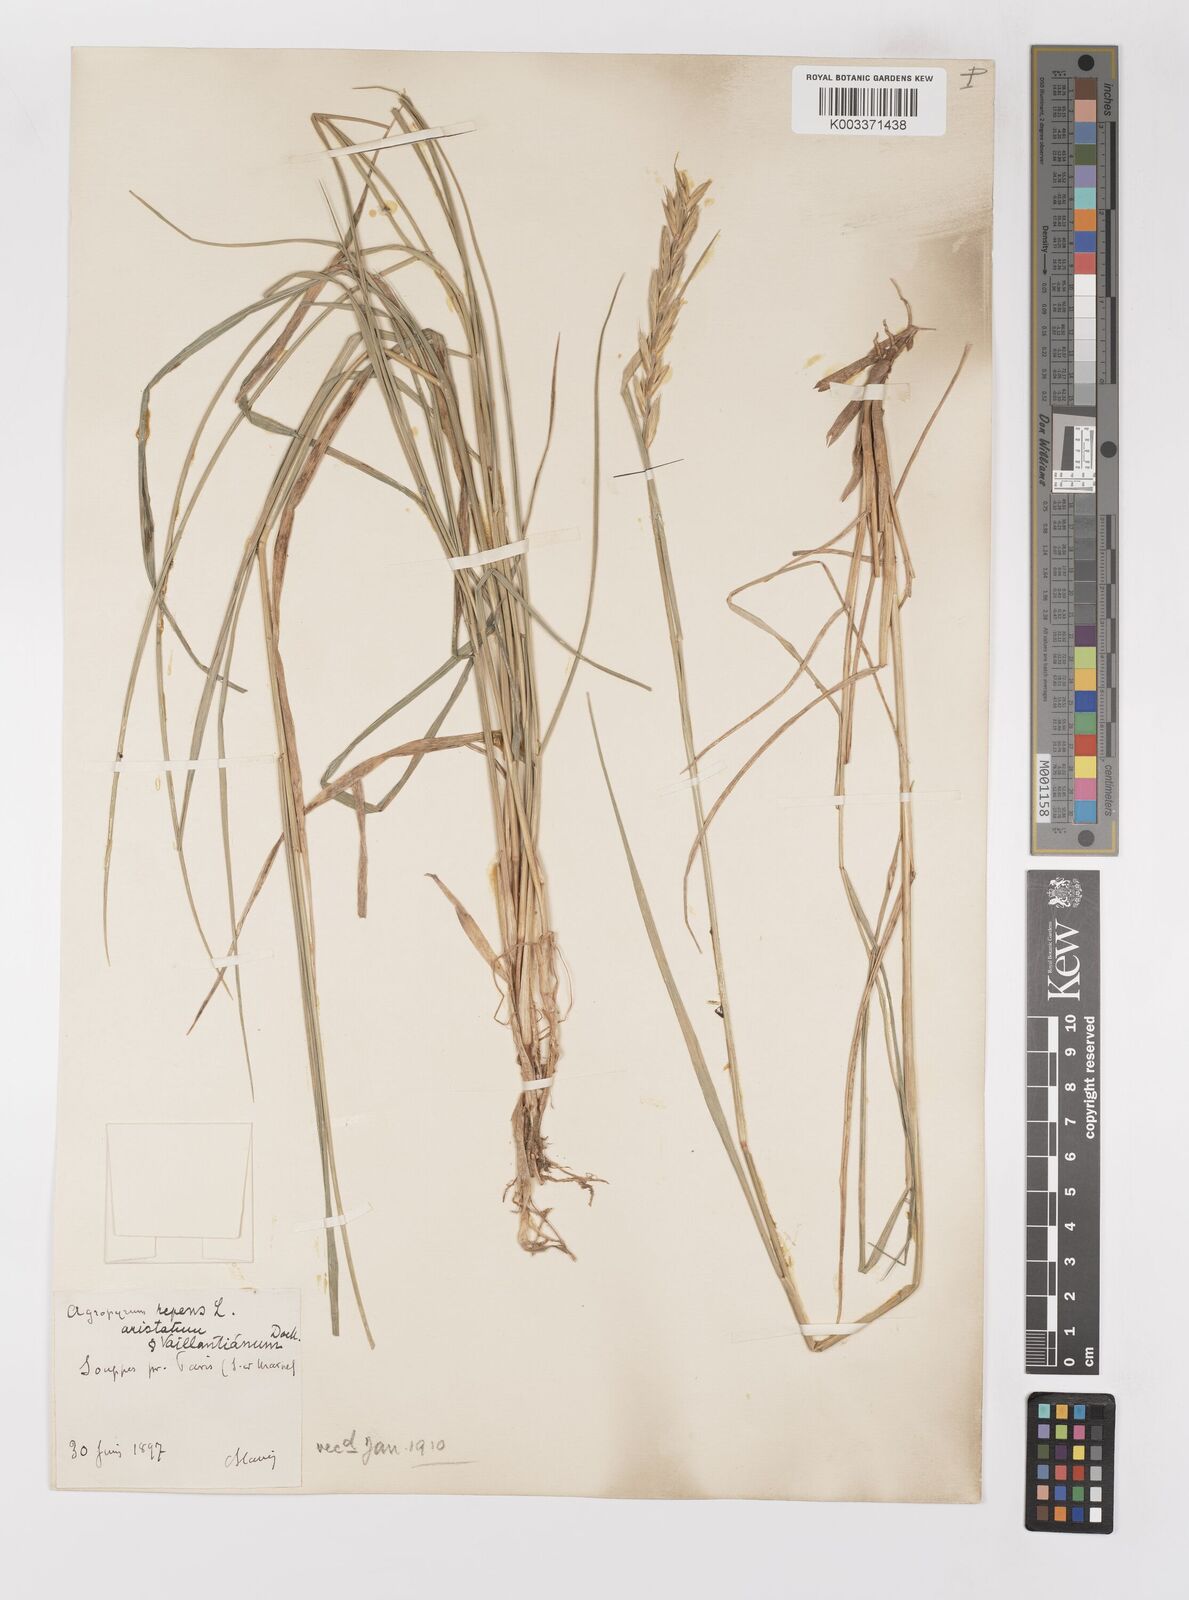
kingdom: Plantae
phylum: Tracheophyta
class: Liliopsida
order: Poales
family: Poaceae
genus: Elymus
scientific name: Elymus repens
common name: Quackgrass
